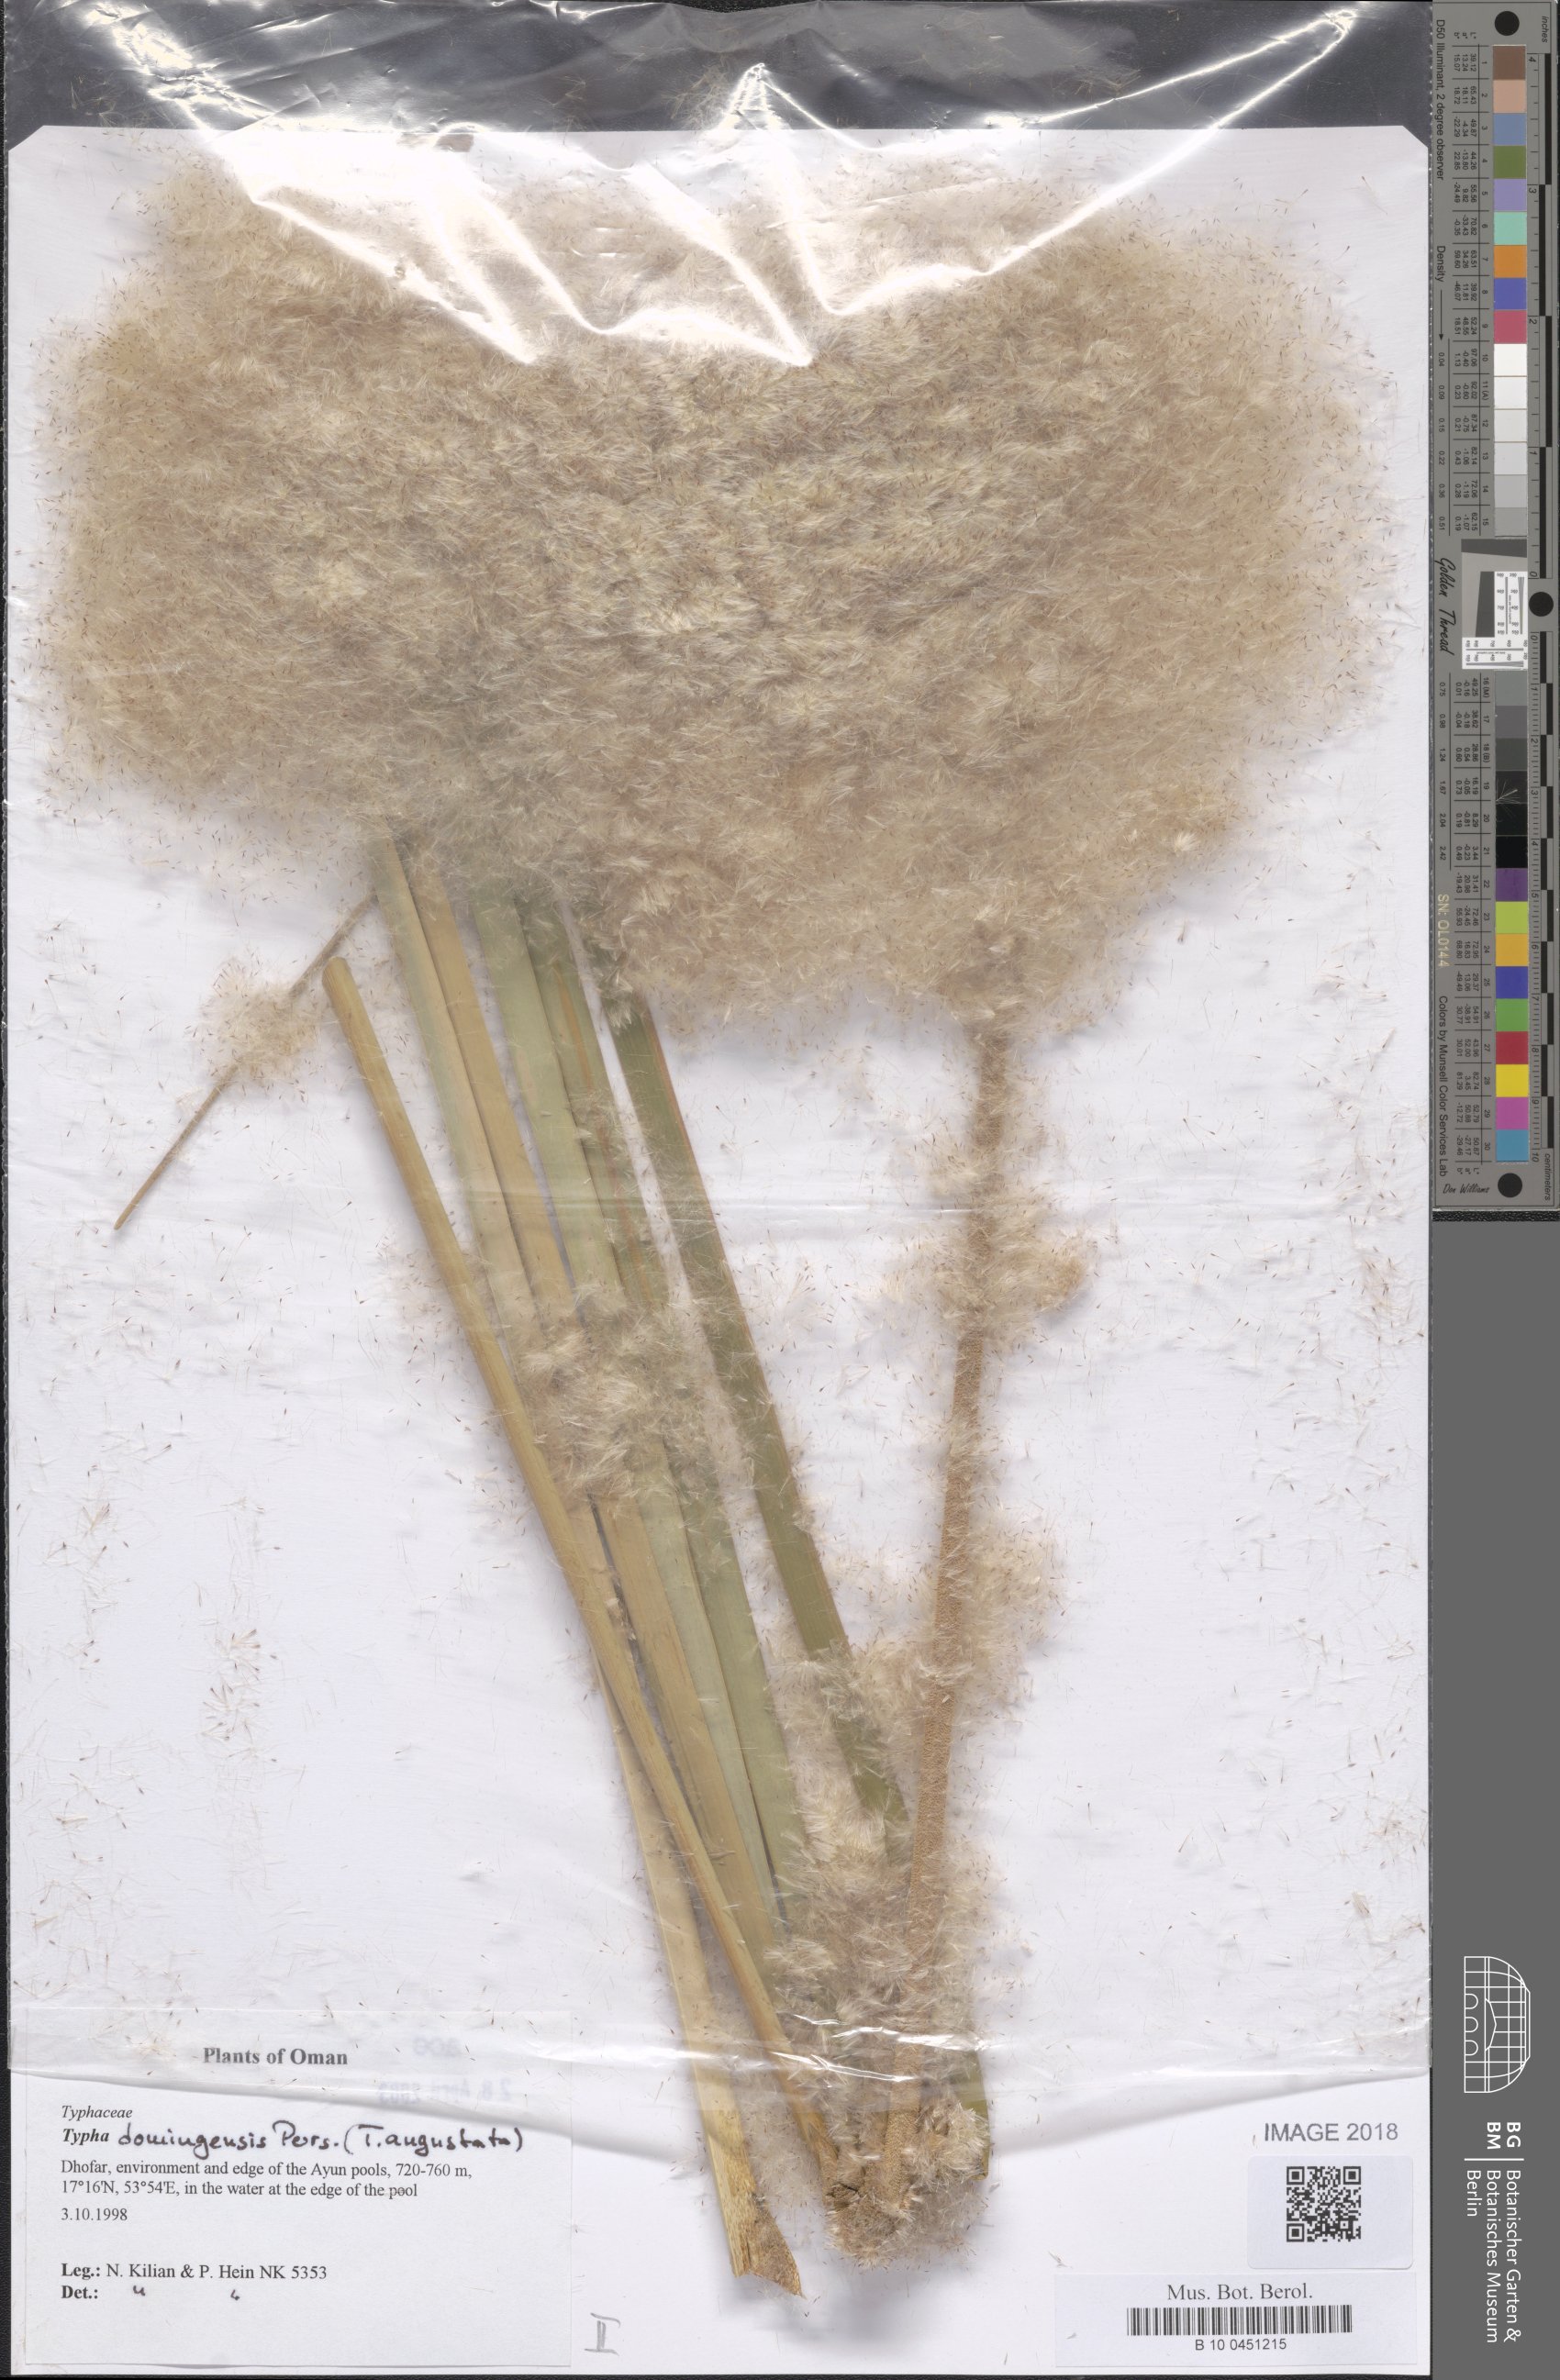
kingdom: Plantae
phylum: Tracheophyta
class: Liliopsida
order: Poales
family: Typhaceae
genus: Typha
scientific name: Typha domingensis
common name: Southern cattail
